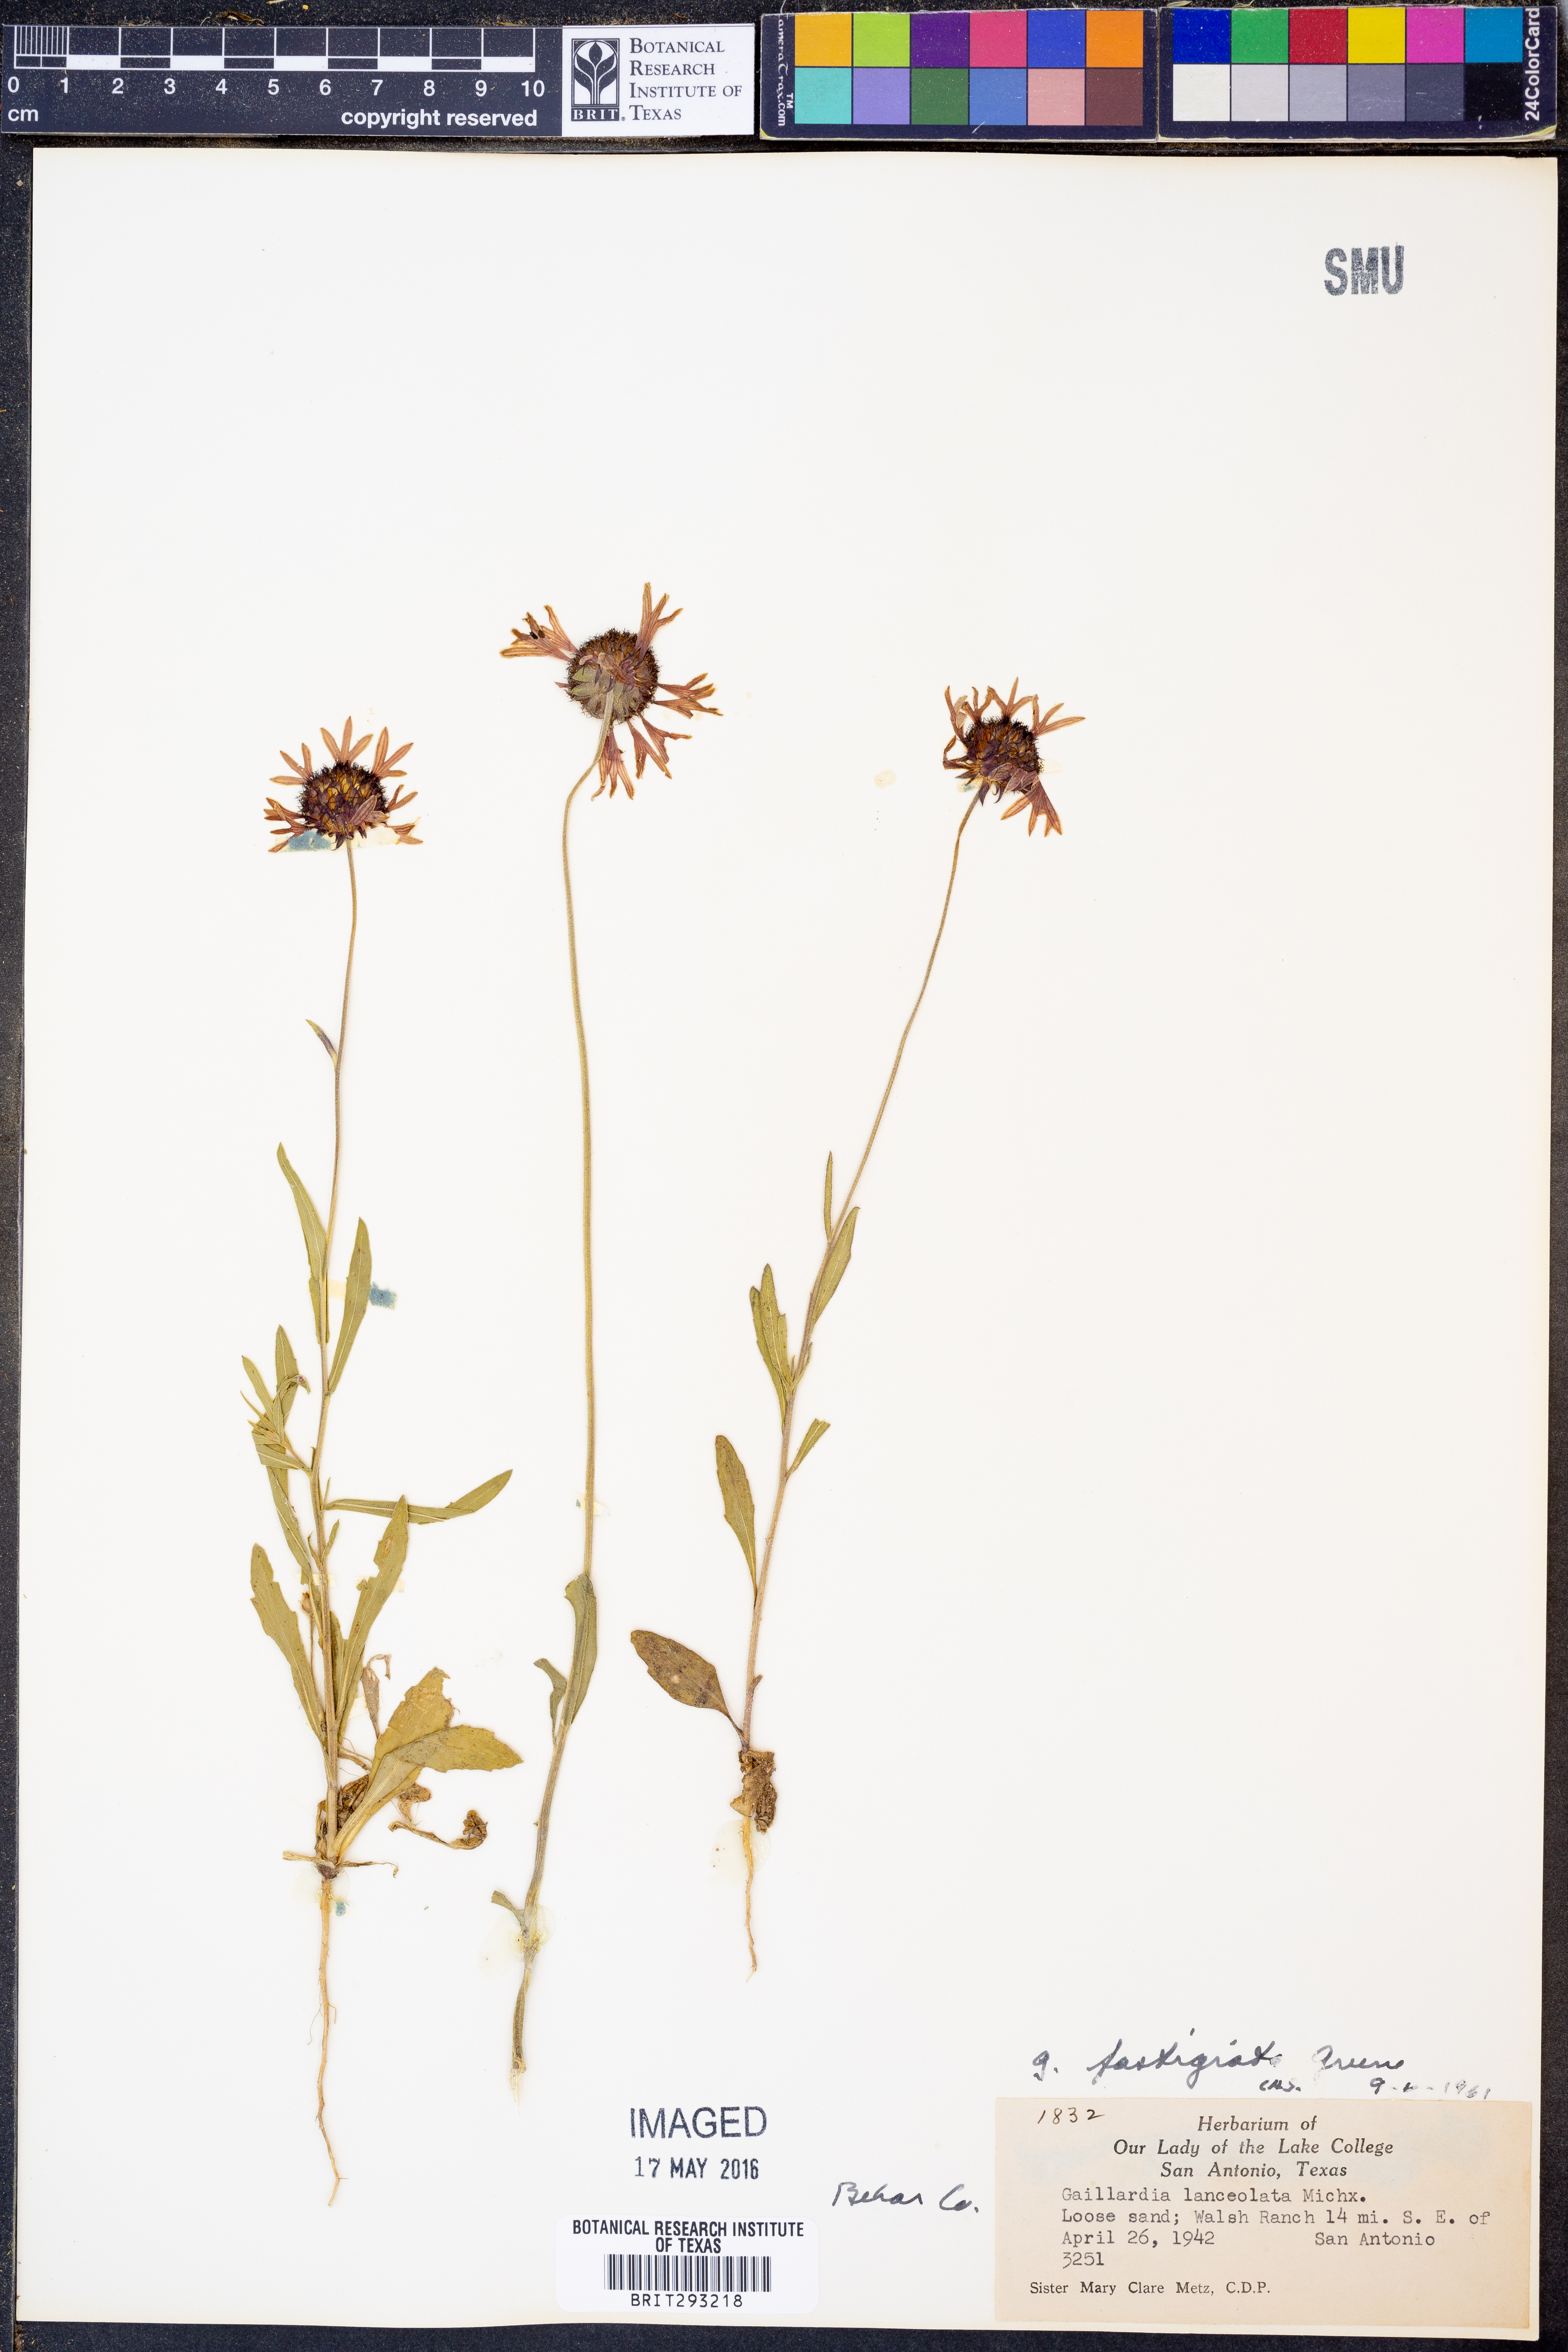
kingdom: Plantae
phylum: Tracheophyta
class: Magnoliopsida
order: Asterales
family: Asteraceae
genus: Gaillardia
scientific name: Gaillardia aestivalis
